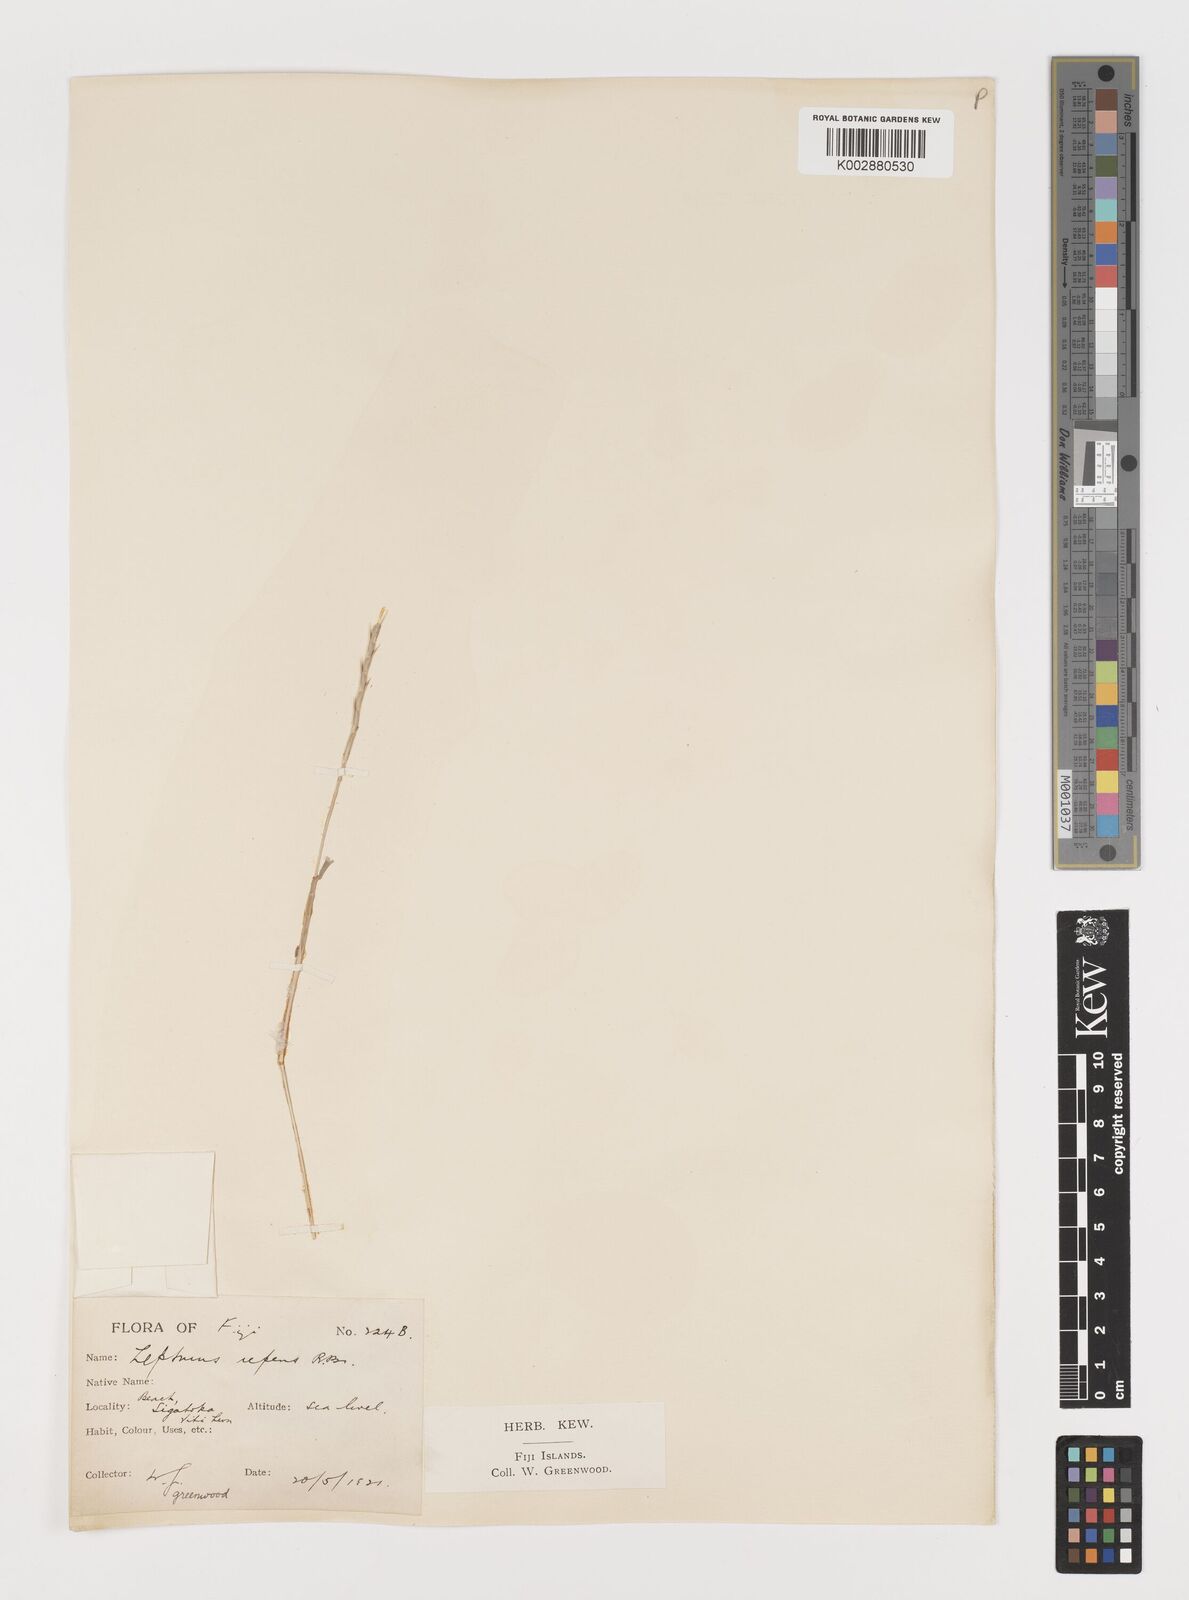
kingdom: Plantae
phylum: Tracheophyta
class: Liliopsida
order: Poales
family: Poaceae
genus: Lepturus
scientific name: Lepturus repens
